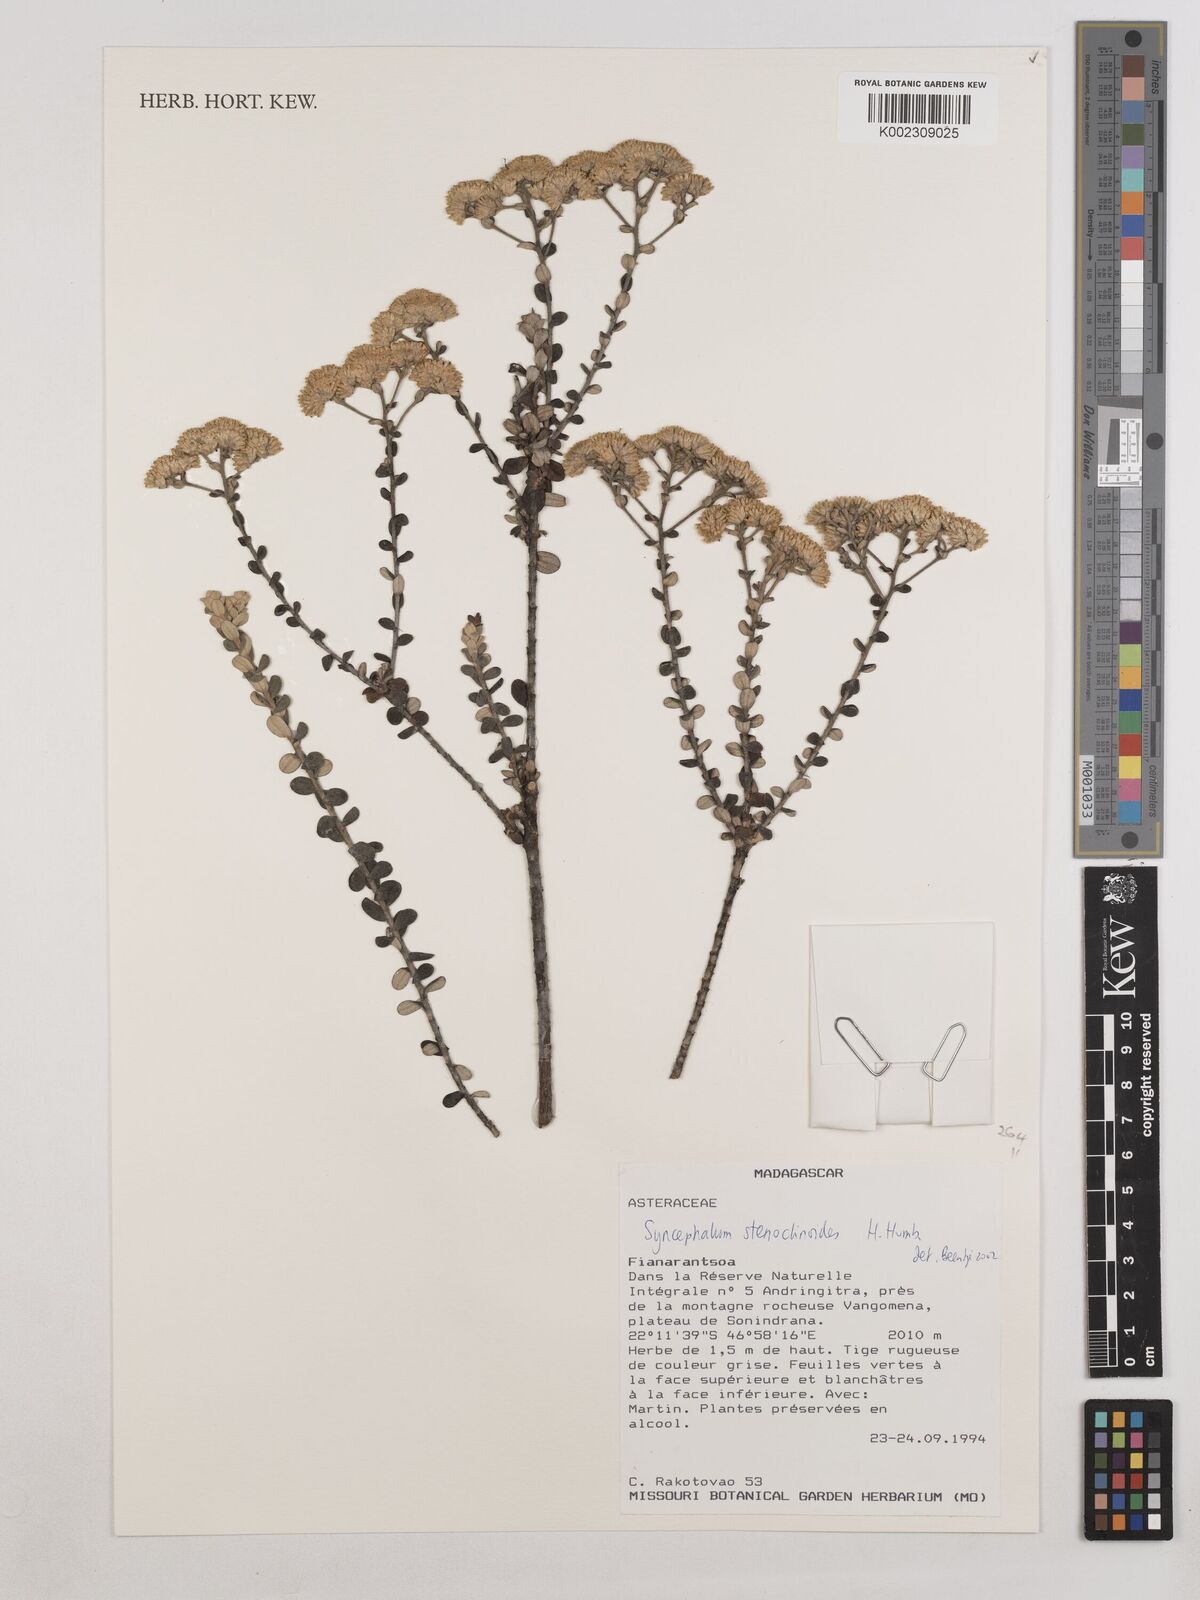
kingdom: Plantae
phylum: Tracheophyta
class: Magnoliopsida
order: Asterales
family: Asteraceae
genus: Syncephalum
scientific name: Syncephalum stenoclinoides
